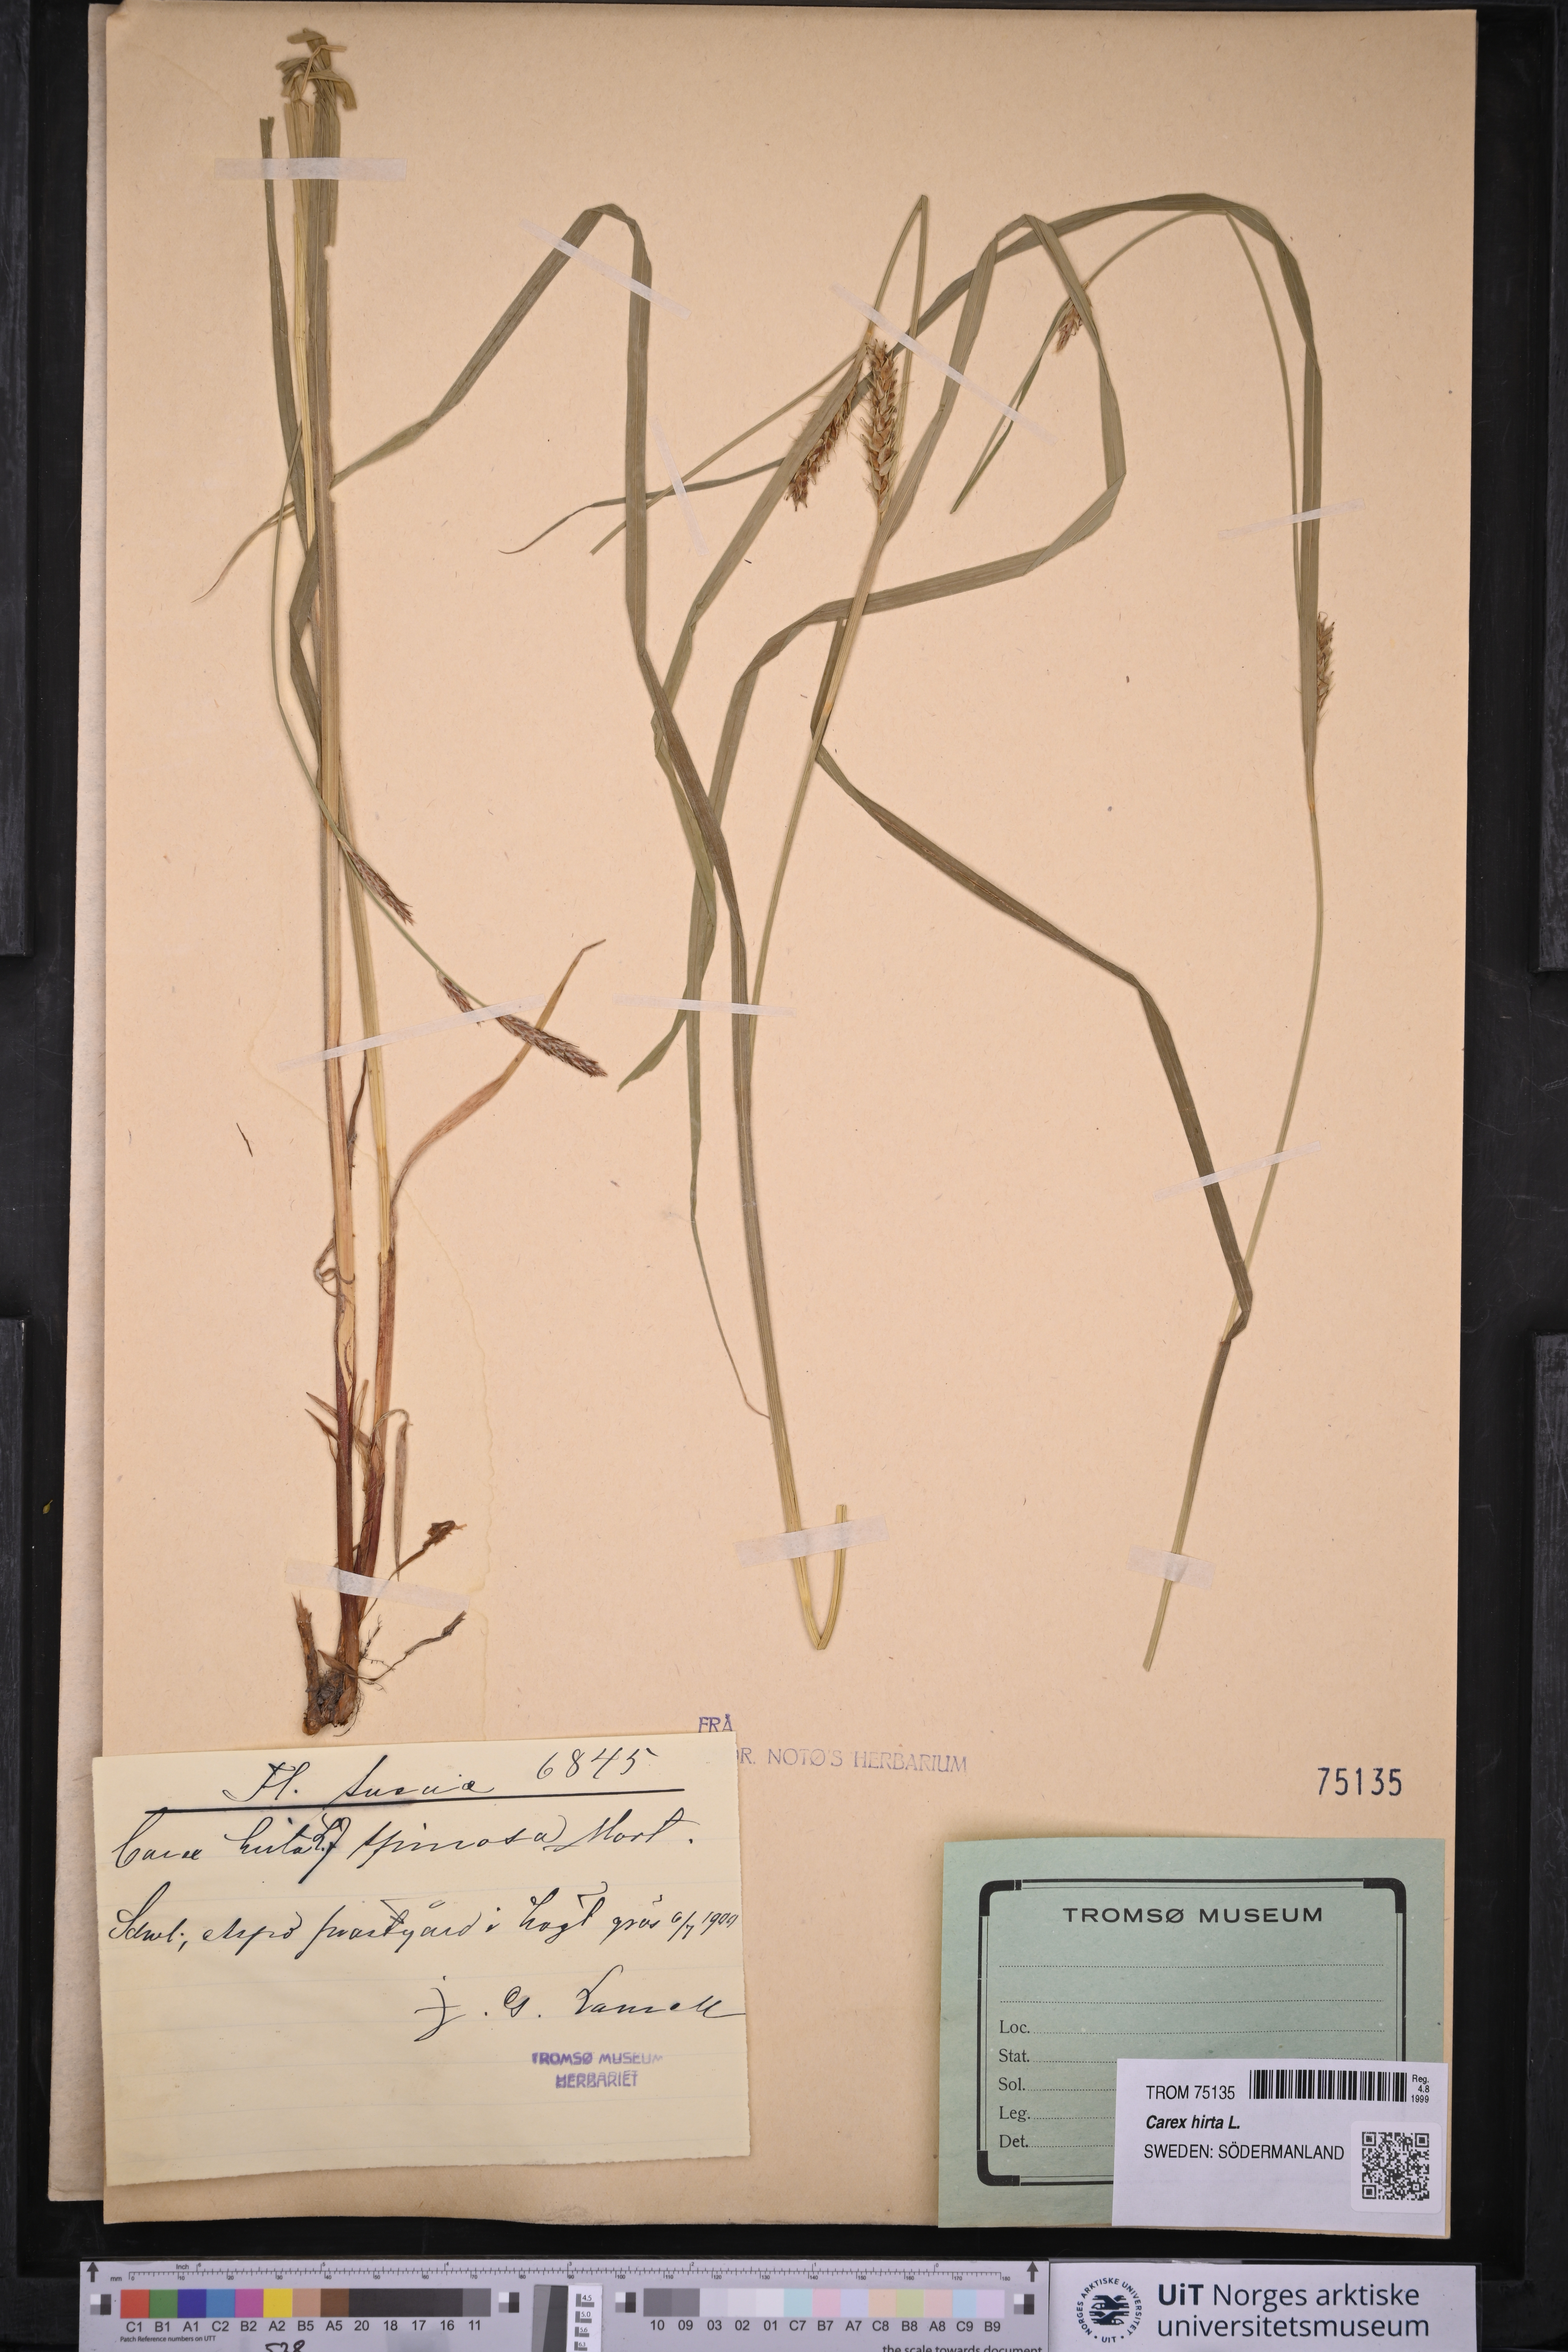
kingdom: Plantae
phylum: Tracheophyta
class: Liliopsida
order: Poales
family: Cyperaceae
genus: Carex
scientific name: Carex hirta
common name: Hairy sedge
